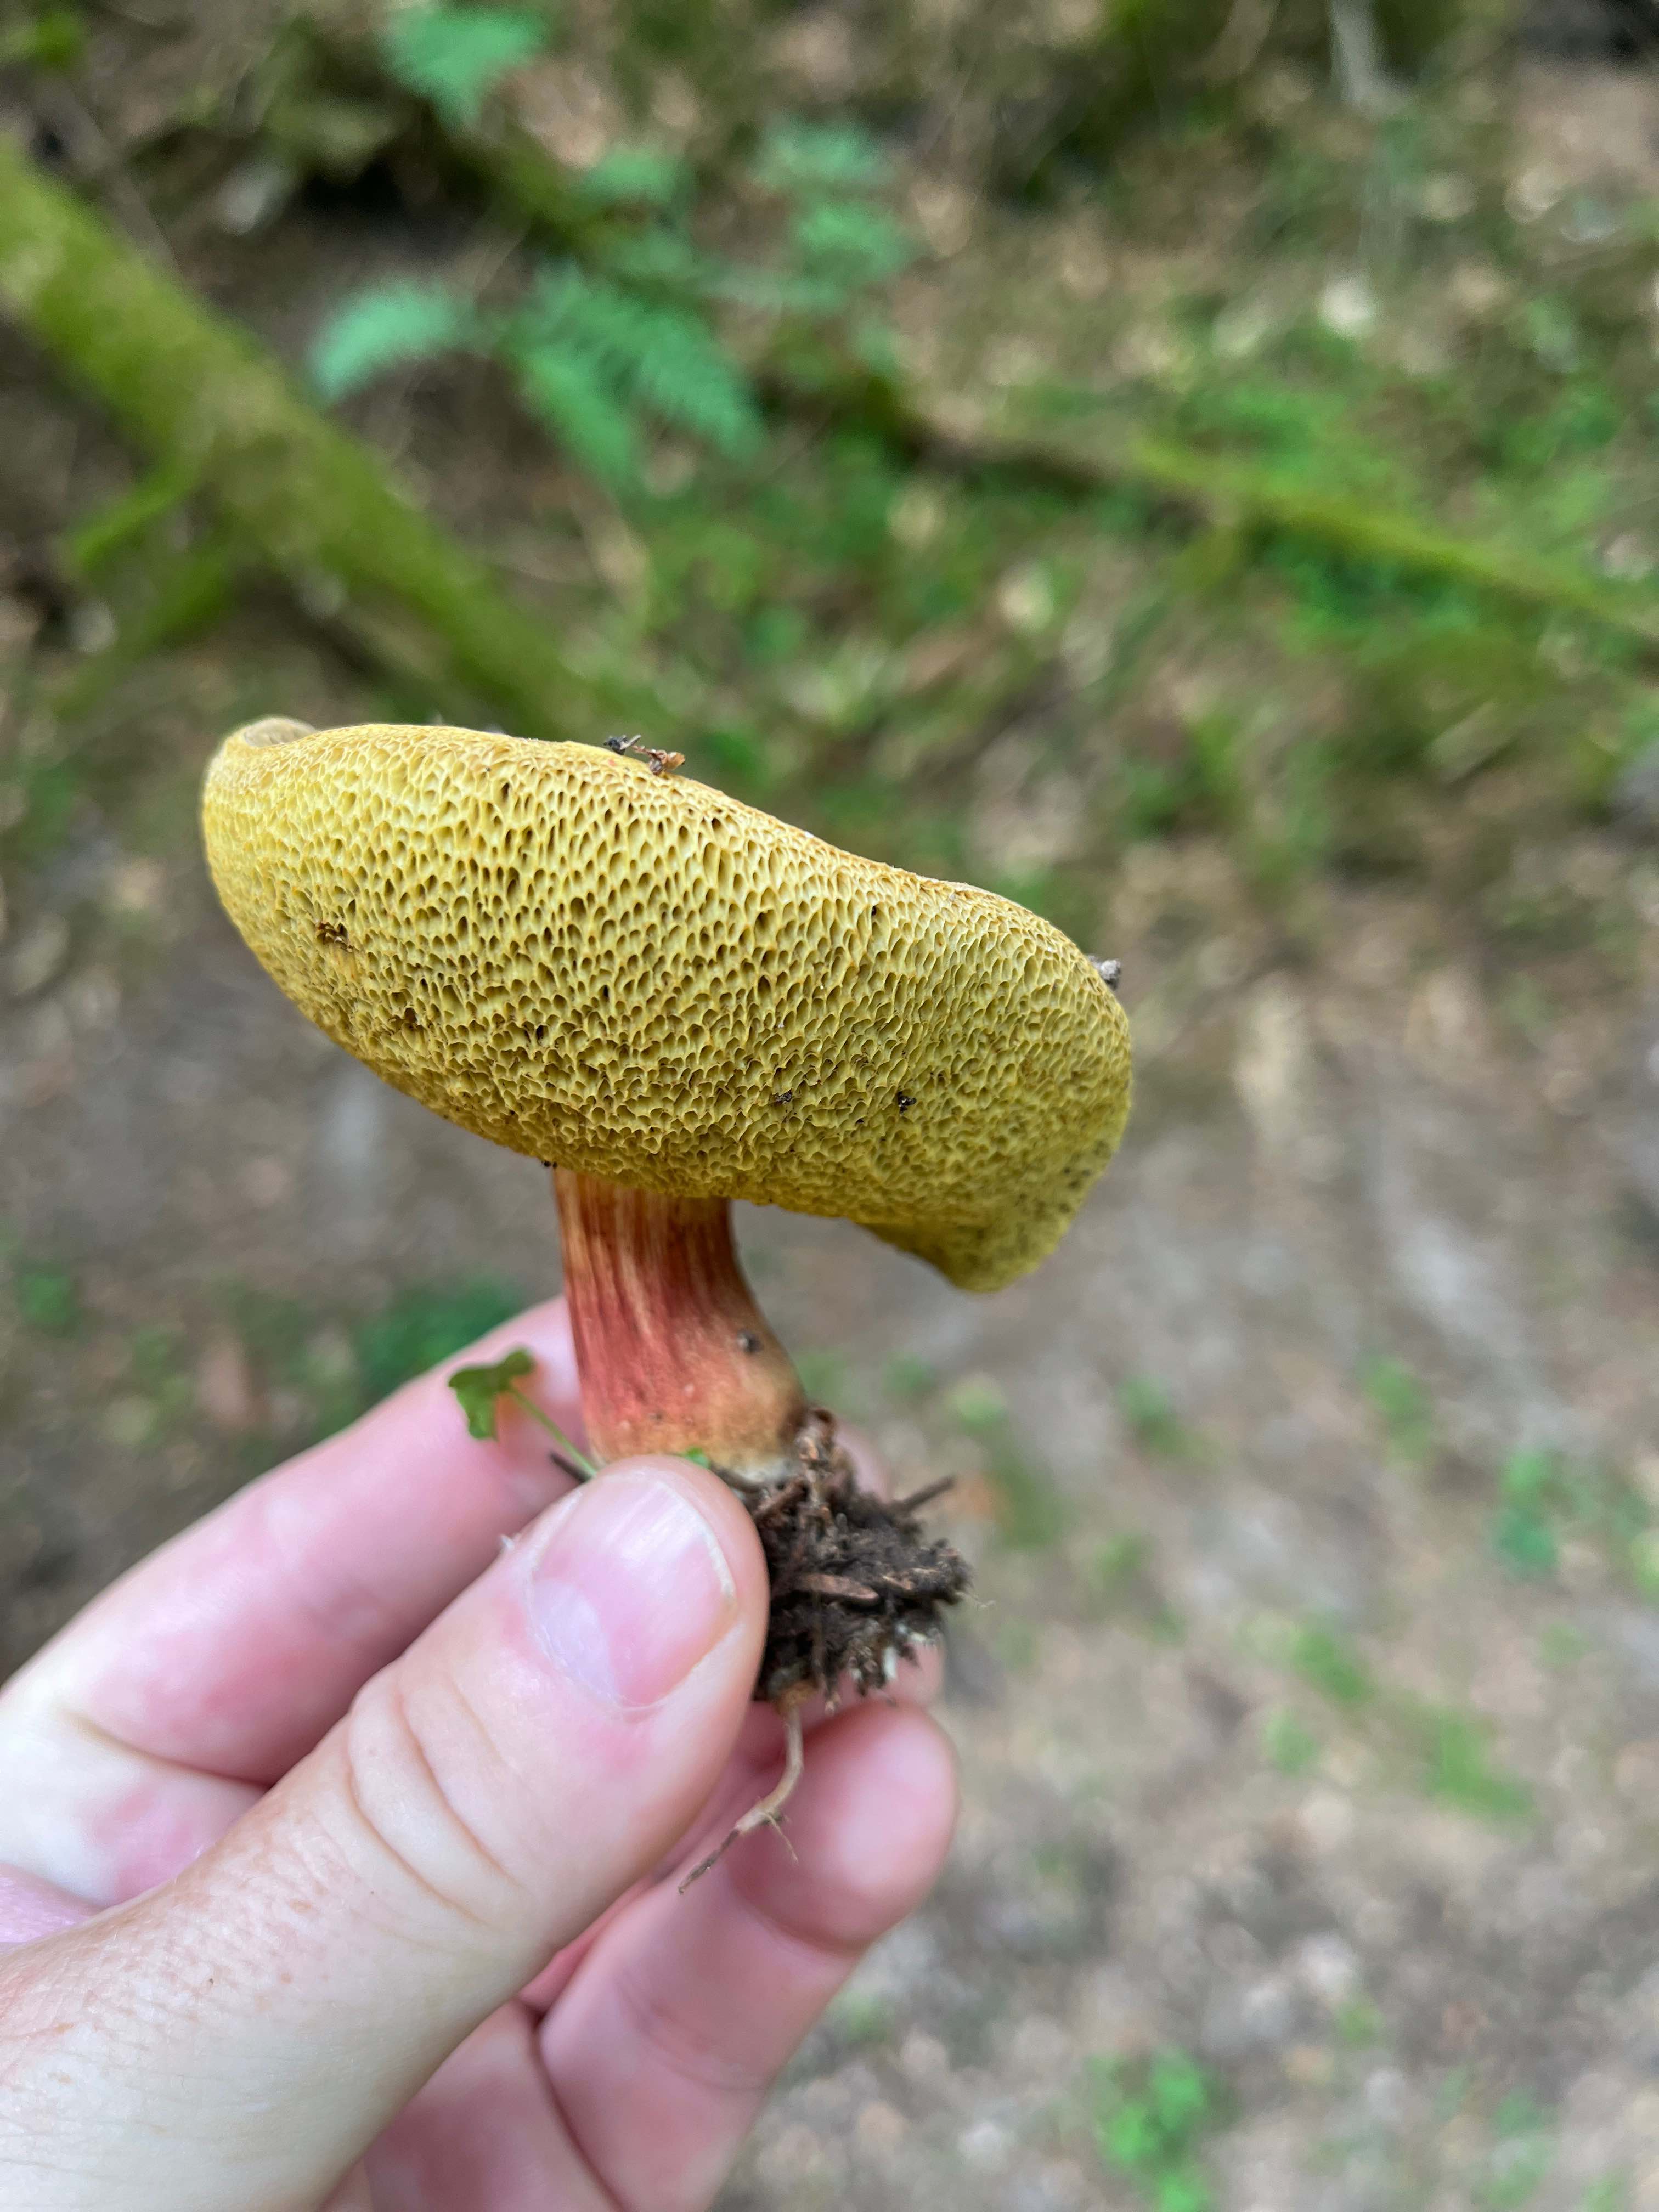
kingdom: Fungi
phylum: Basidiomycota
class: Agaricomycetes
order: Boletales
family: Boletaceae
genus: Xerocomellus
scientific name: Xerocomellus
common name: dværgrørhat
